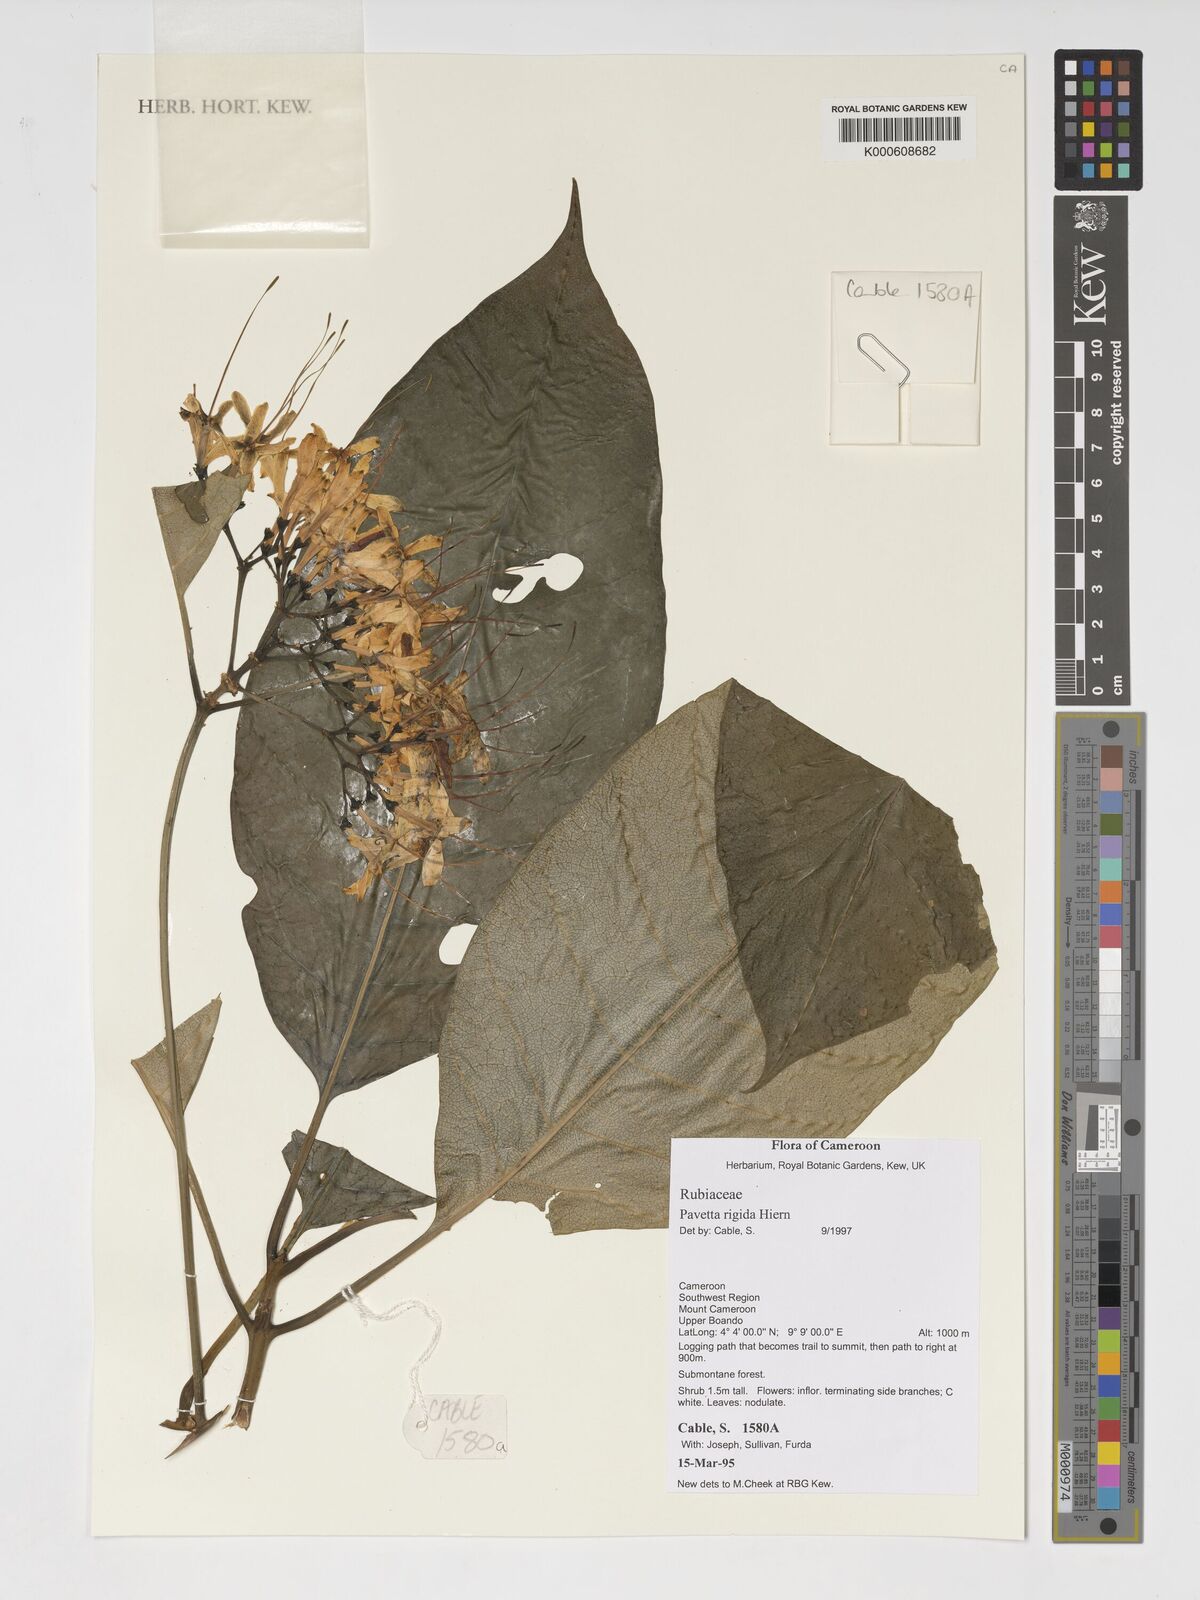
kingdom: Plantae
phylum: Tracheophyta
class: Magnoliopsida
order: Gentianales
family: Rubiaceae
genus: Pavetta
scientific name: Pavetta rigida
